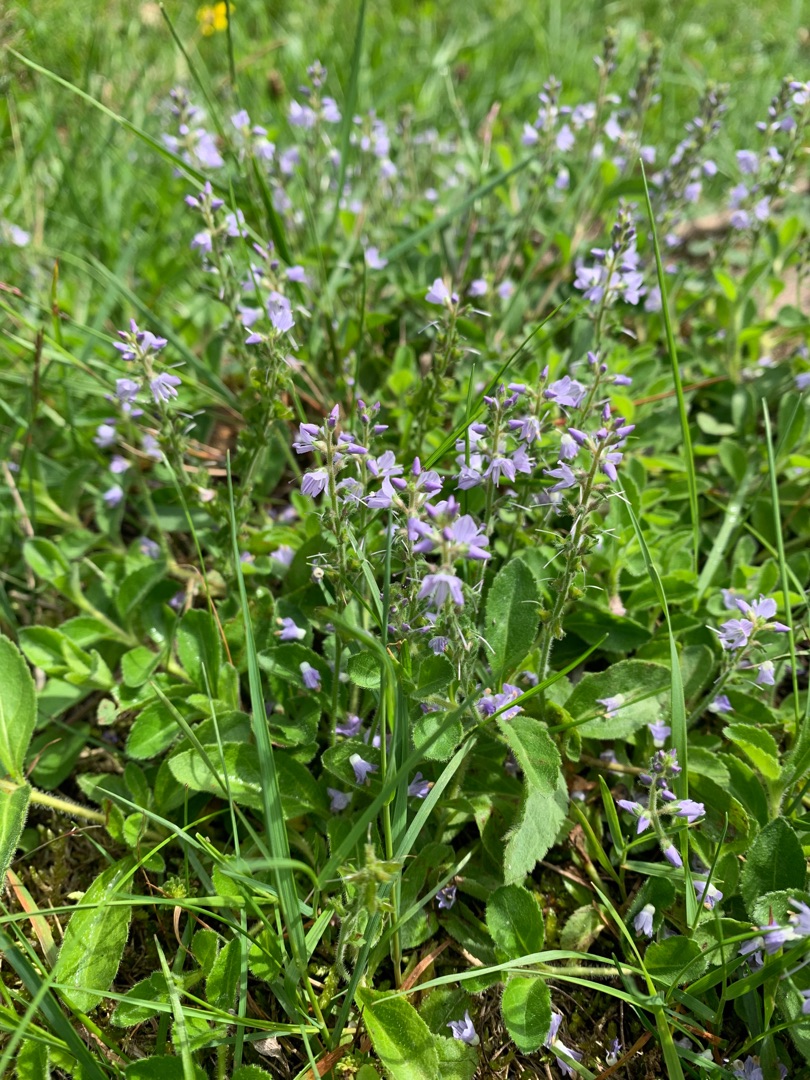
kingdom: Plantae
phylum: Tracheophyta
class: Magnoliopsida
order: Lamiales
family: Plantaginaceae
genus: Veronica
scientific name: Veronica officinalis
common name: Læge-ærenpris
